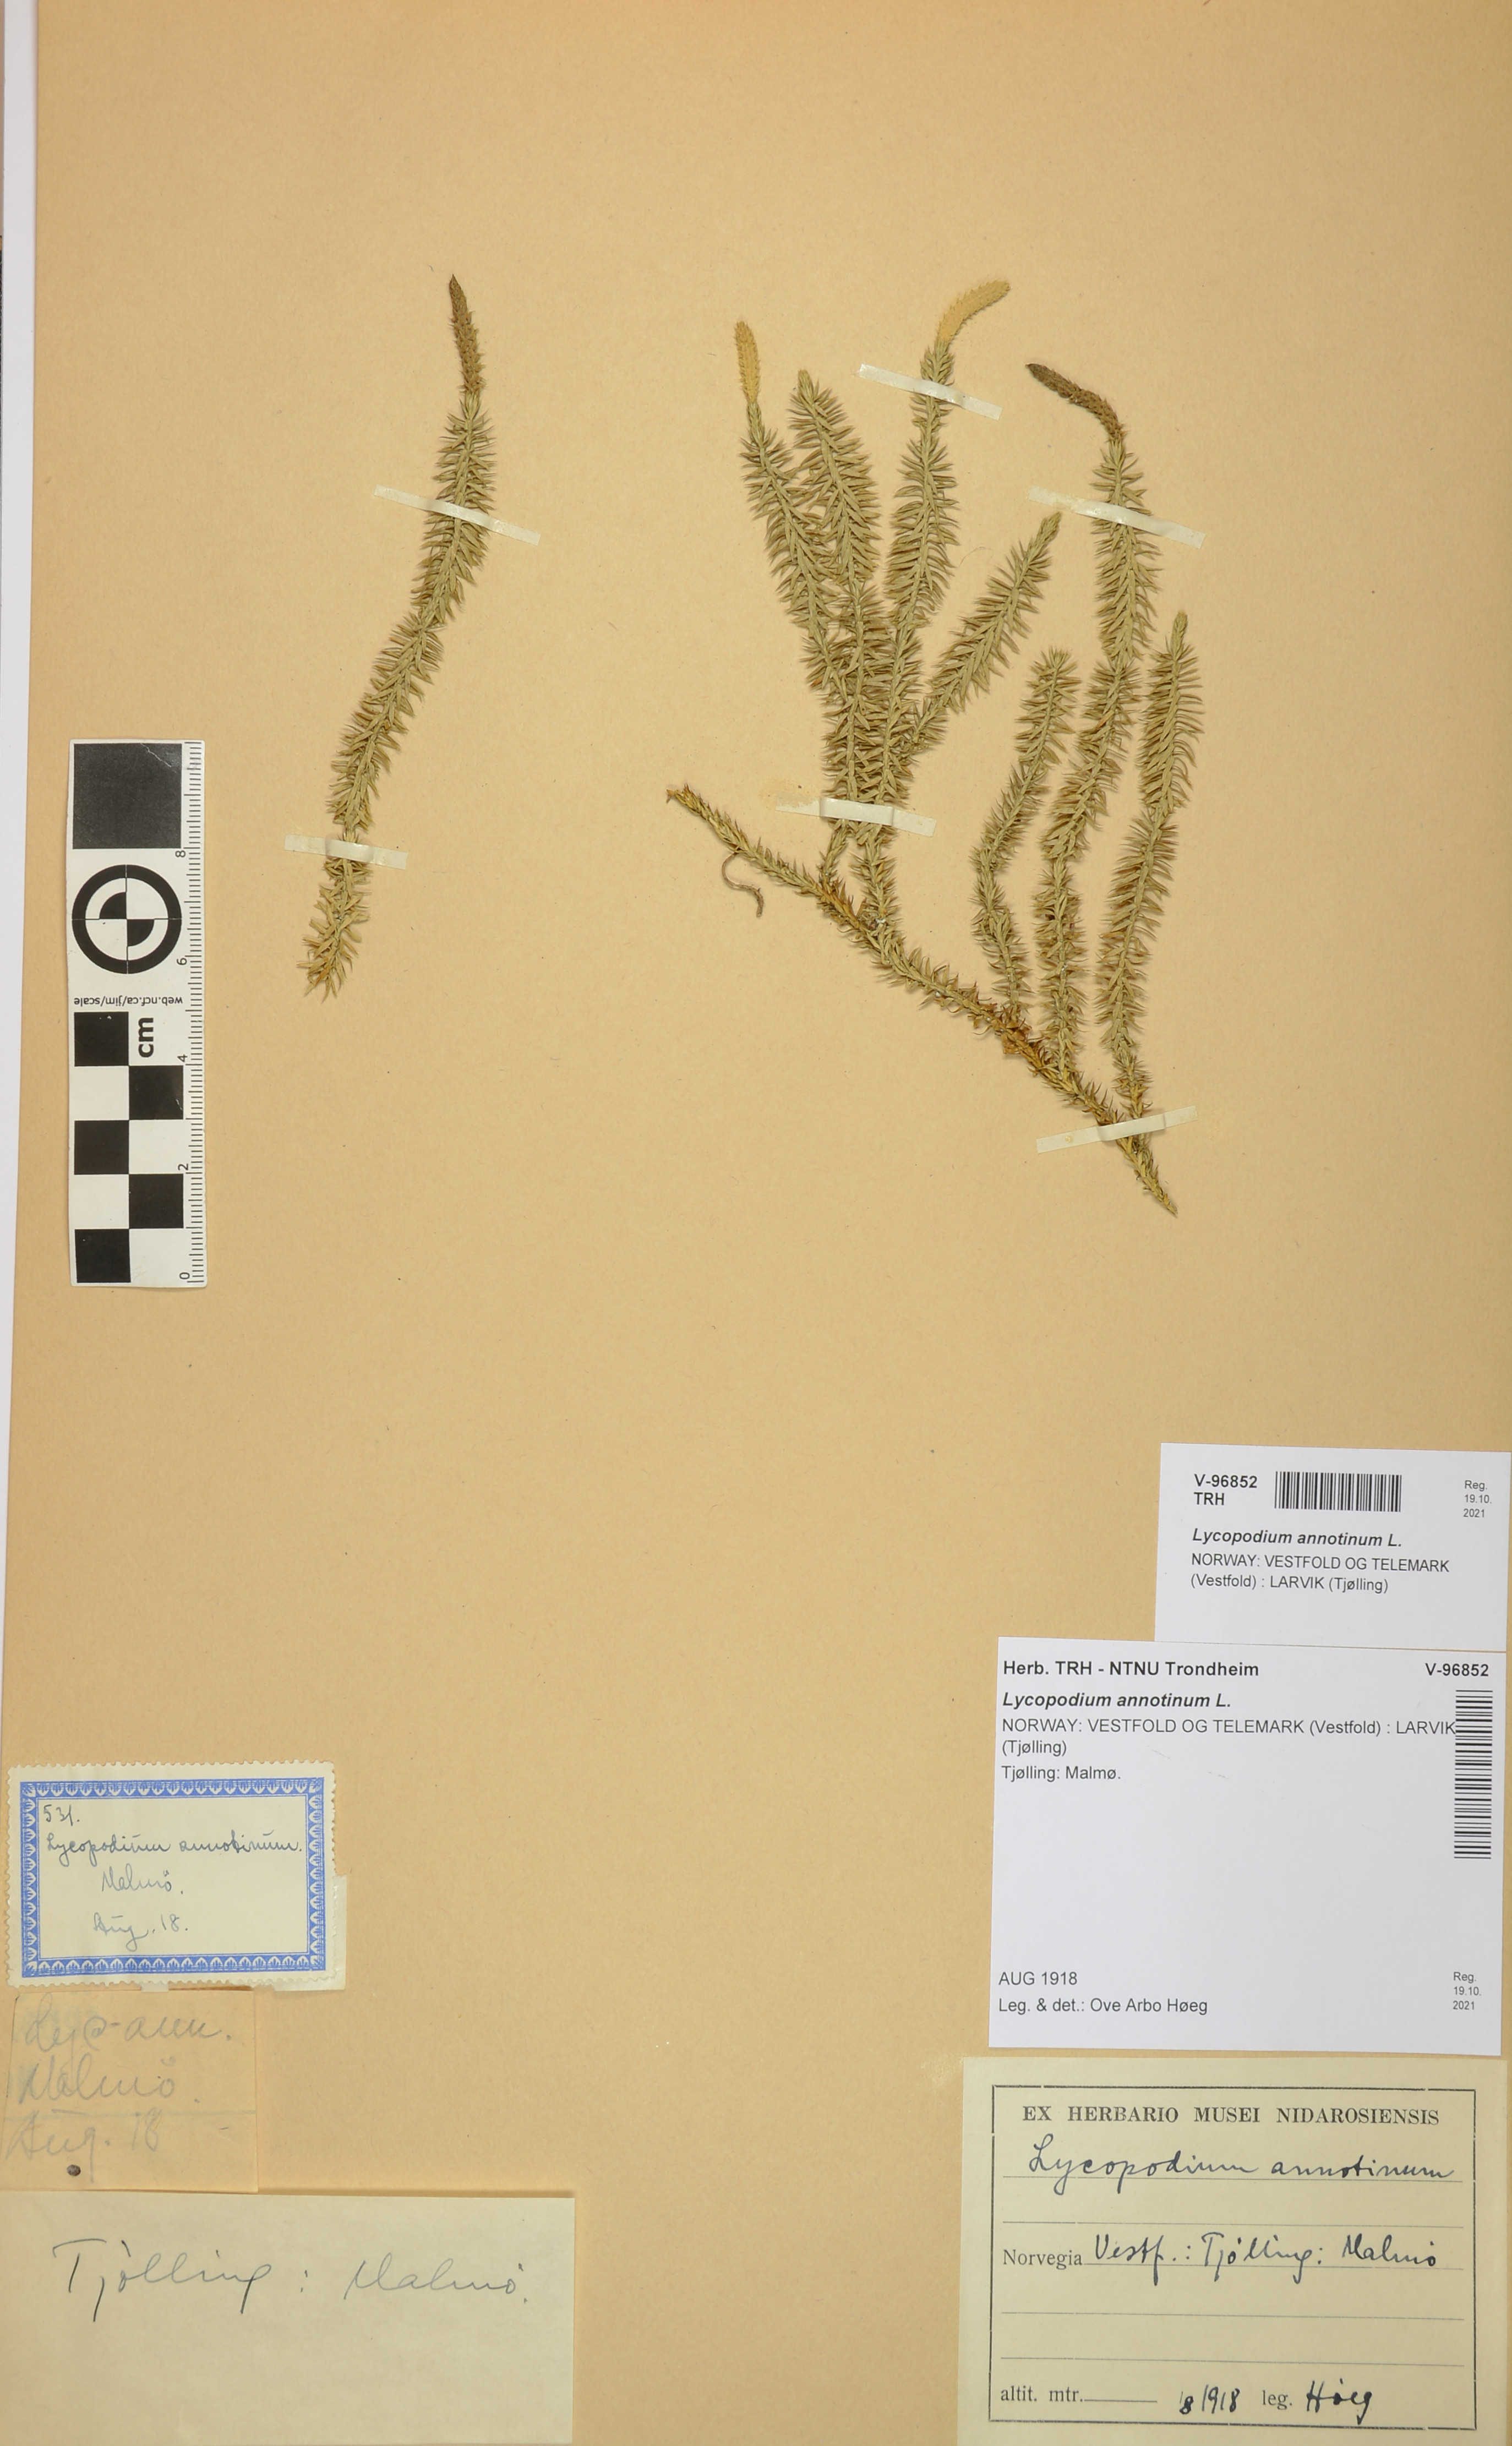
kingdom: Plantae
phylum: Tracheophyta
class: Lycopodiopsida
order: Lycopodiales
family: Lycopodiaceae
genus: Spinulum
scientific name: Spinulum annotinum
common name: Interrupted club-moss
